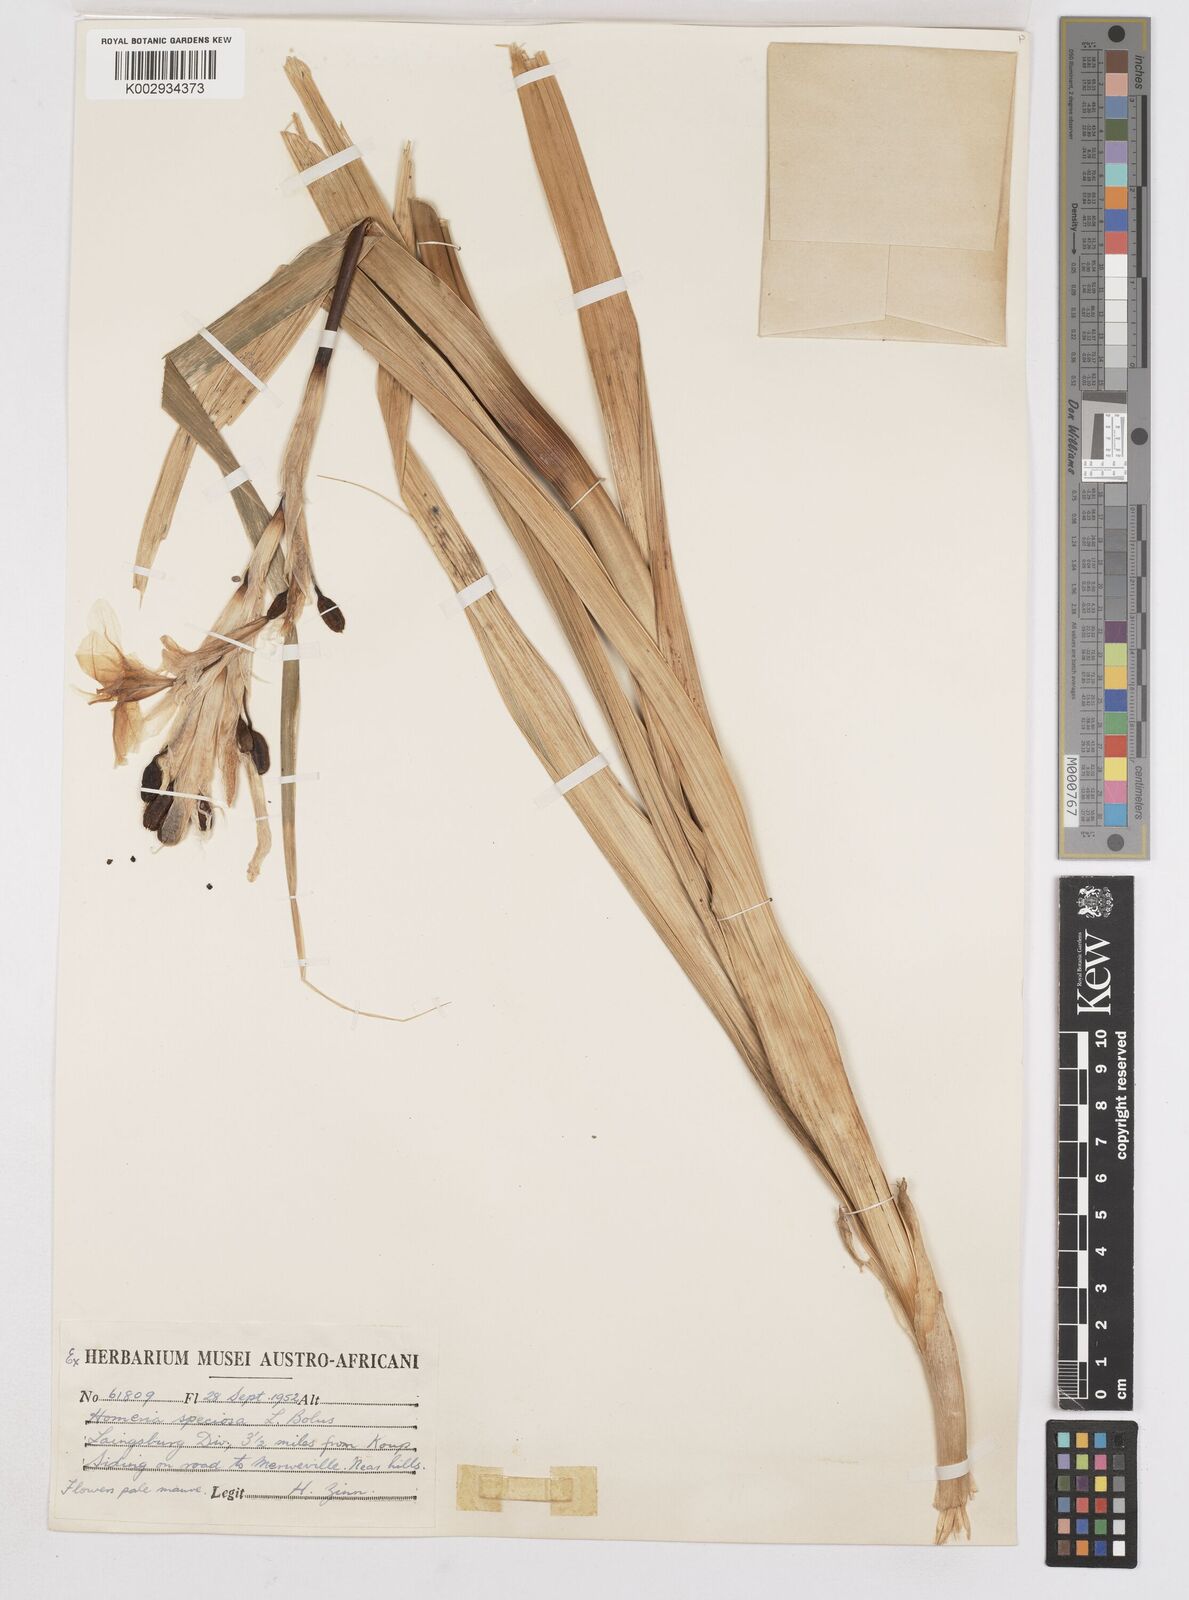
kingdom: Plantae
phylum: Tracheophyta
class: Liliopsida
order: Asparagales
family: Iridaceae
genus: Moraea
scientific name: Moraea speciosa
